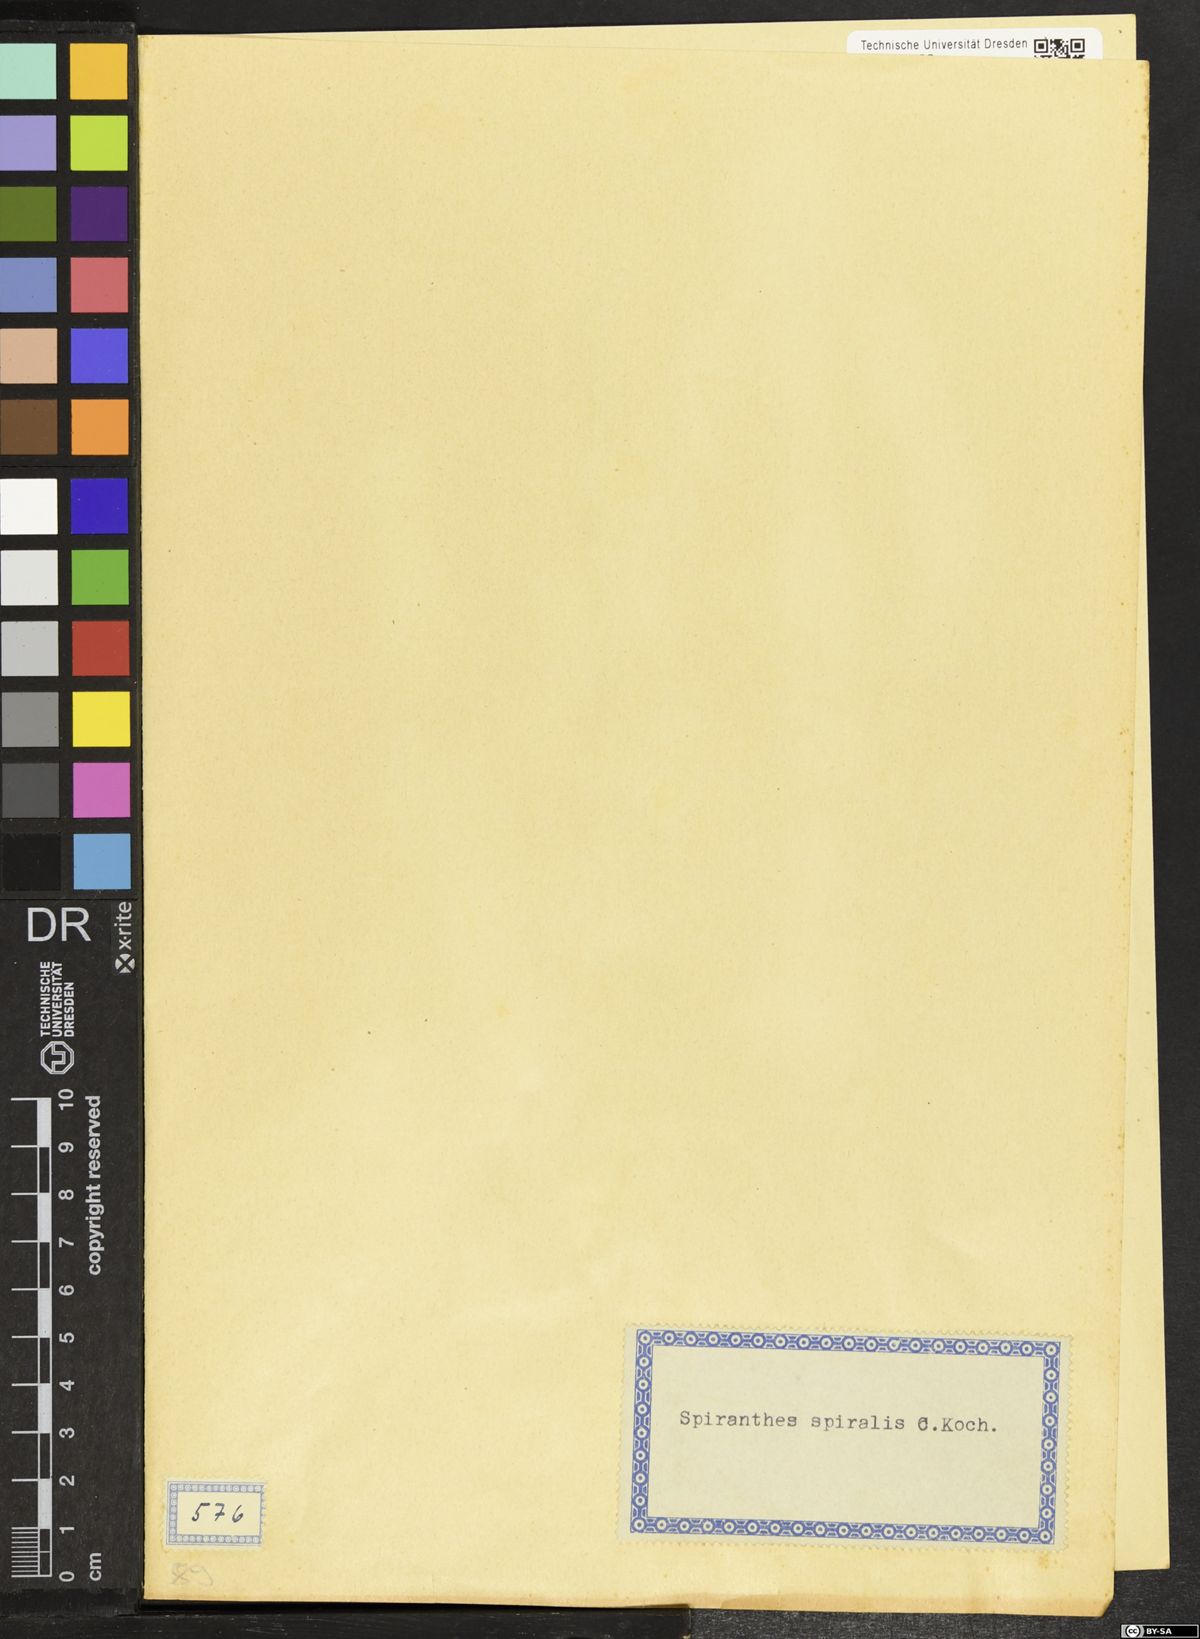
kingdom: Plantae
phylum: Tracheophyta
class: Liliopsida
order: Asparagales
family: Orchidaceae
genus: Spiranthes
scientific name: Spiranthes spiralis
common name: Autumn lady's-tresses
